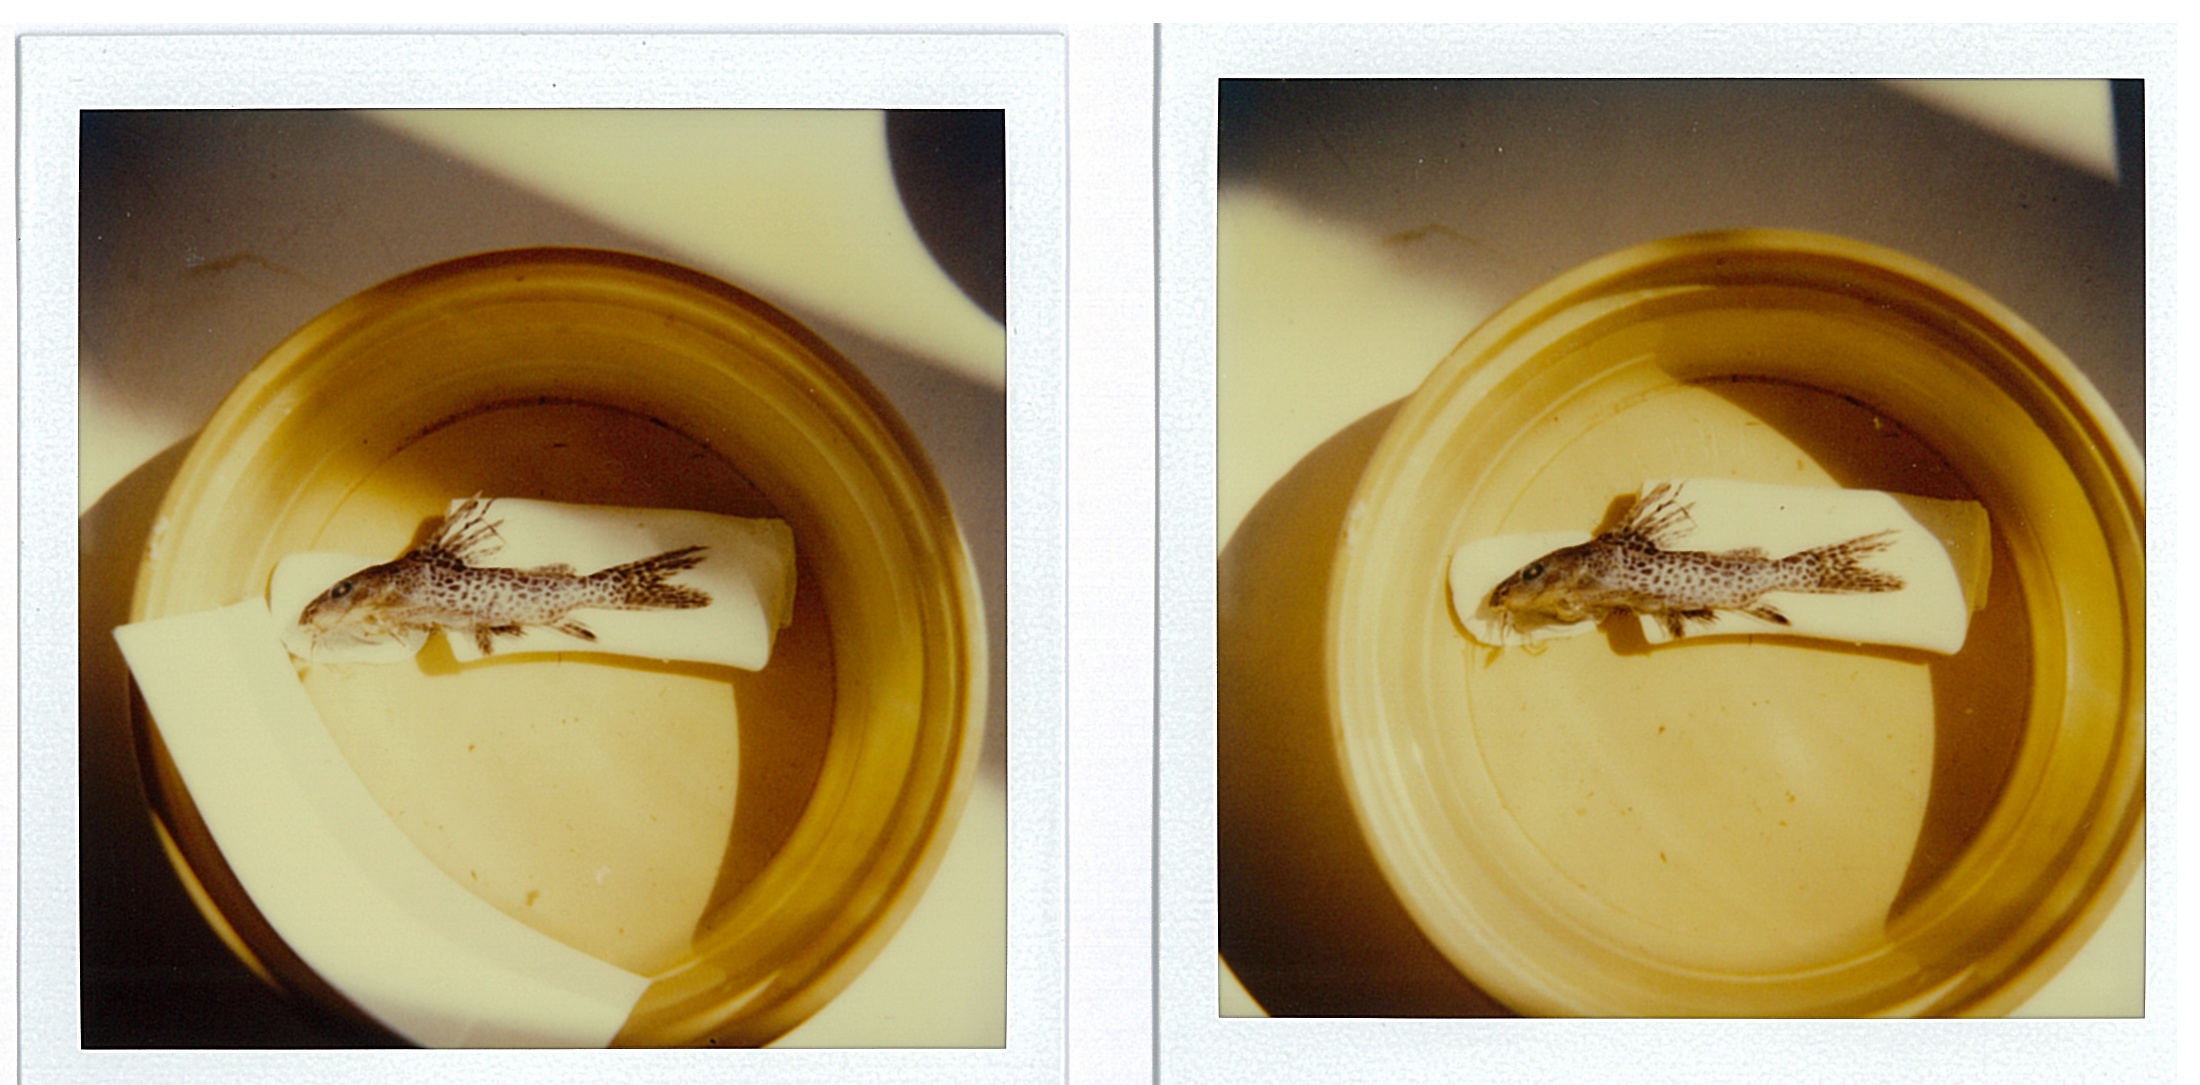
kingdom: Animalia
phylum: Chordata
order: Siluriformes
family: Mochokidae
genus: Synodontis
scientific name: Synodontis woosnami
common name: Upper zambezi squeaker
